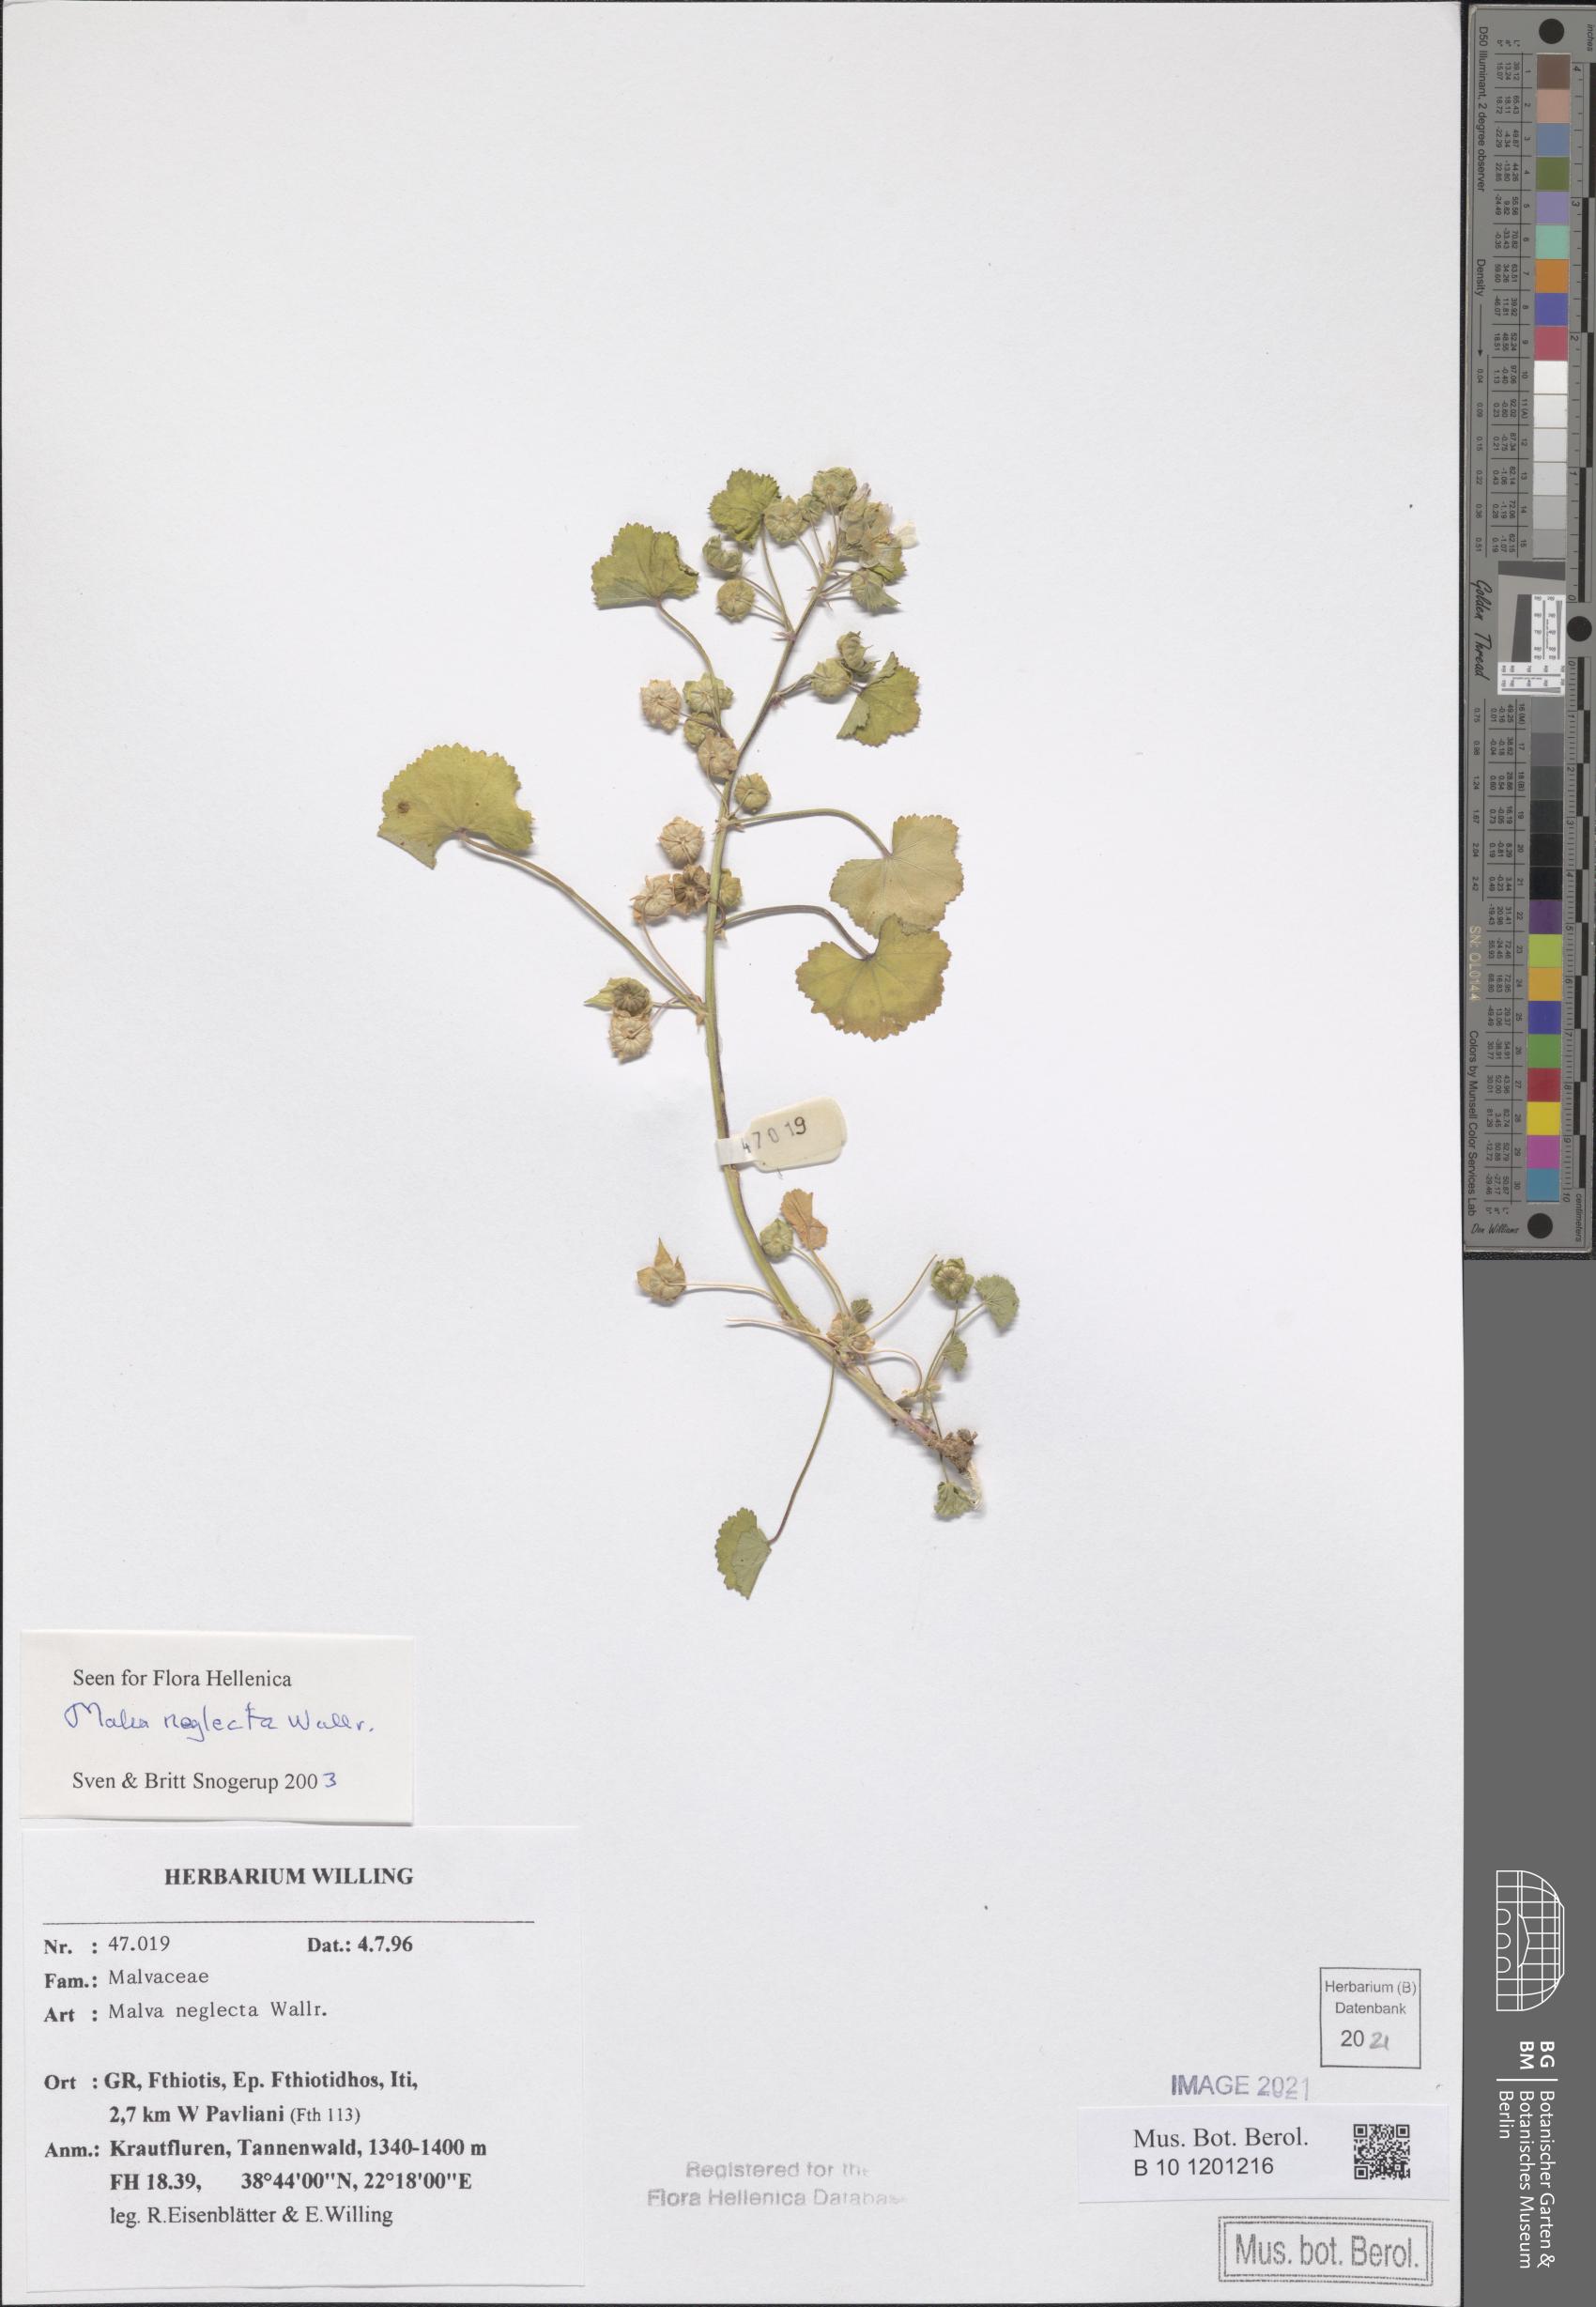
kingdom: Plantae
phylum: Tracheophyta
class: Magnoliopsida
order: Malvales
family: Malvaceae
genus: Malva
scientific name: Malva neglecta
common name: Common mallow
